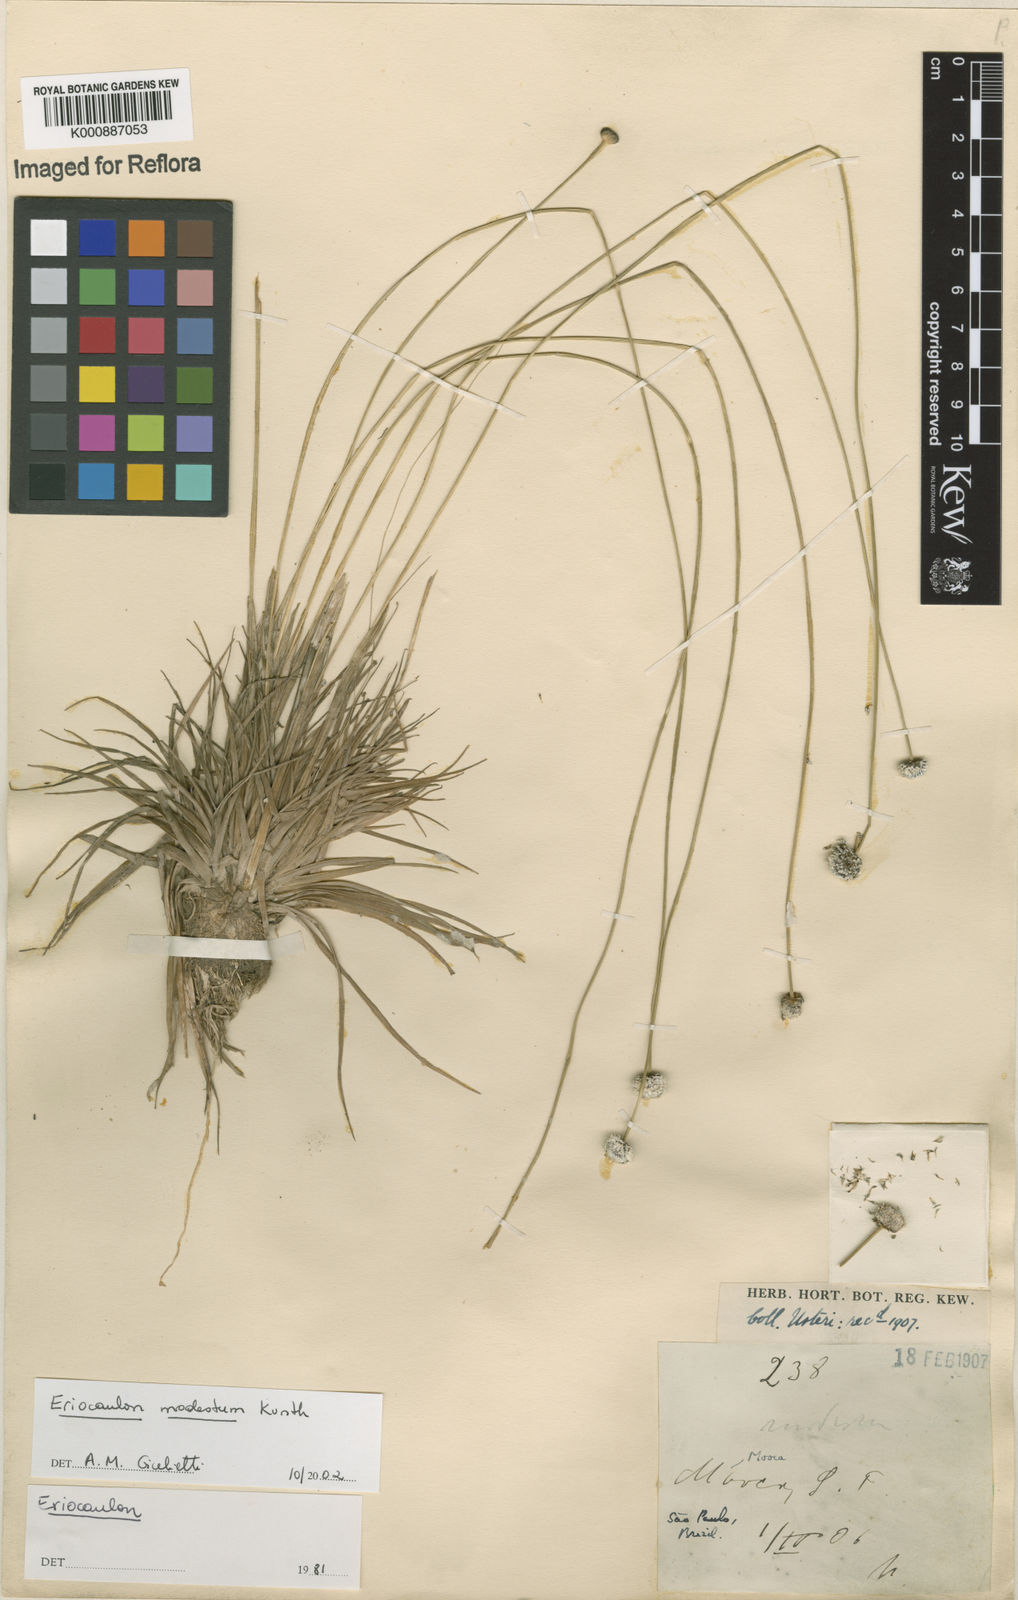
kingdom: Plantae
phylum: Tracheophyta
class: Liliopsida
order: Poales
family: Eriocaulaceae
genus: Eriocaulon
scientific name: Eriocaulon modestum
